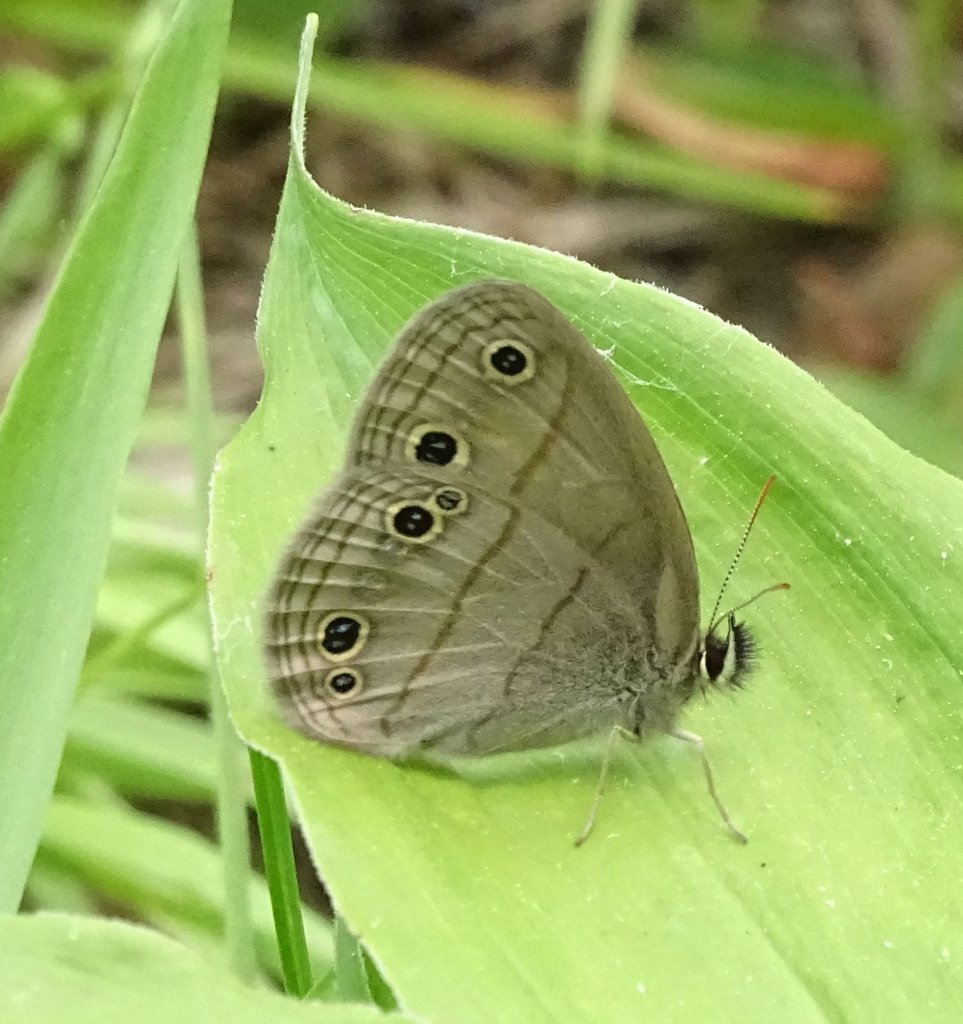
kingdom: Animalia
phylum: Arthropoda
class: Insecta
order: Lepidoptera
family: Nymphalidae
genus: Euptychia
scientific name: Euptychia cymela
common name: Little Wood Satyr
